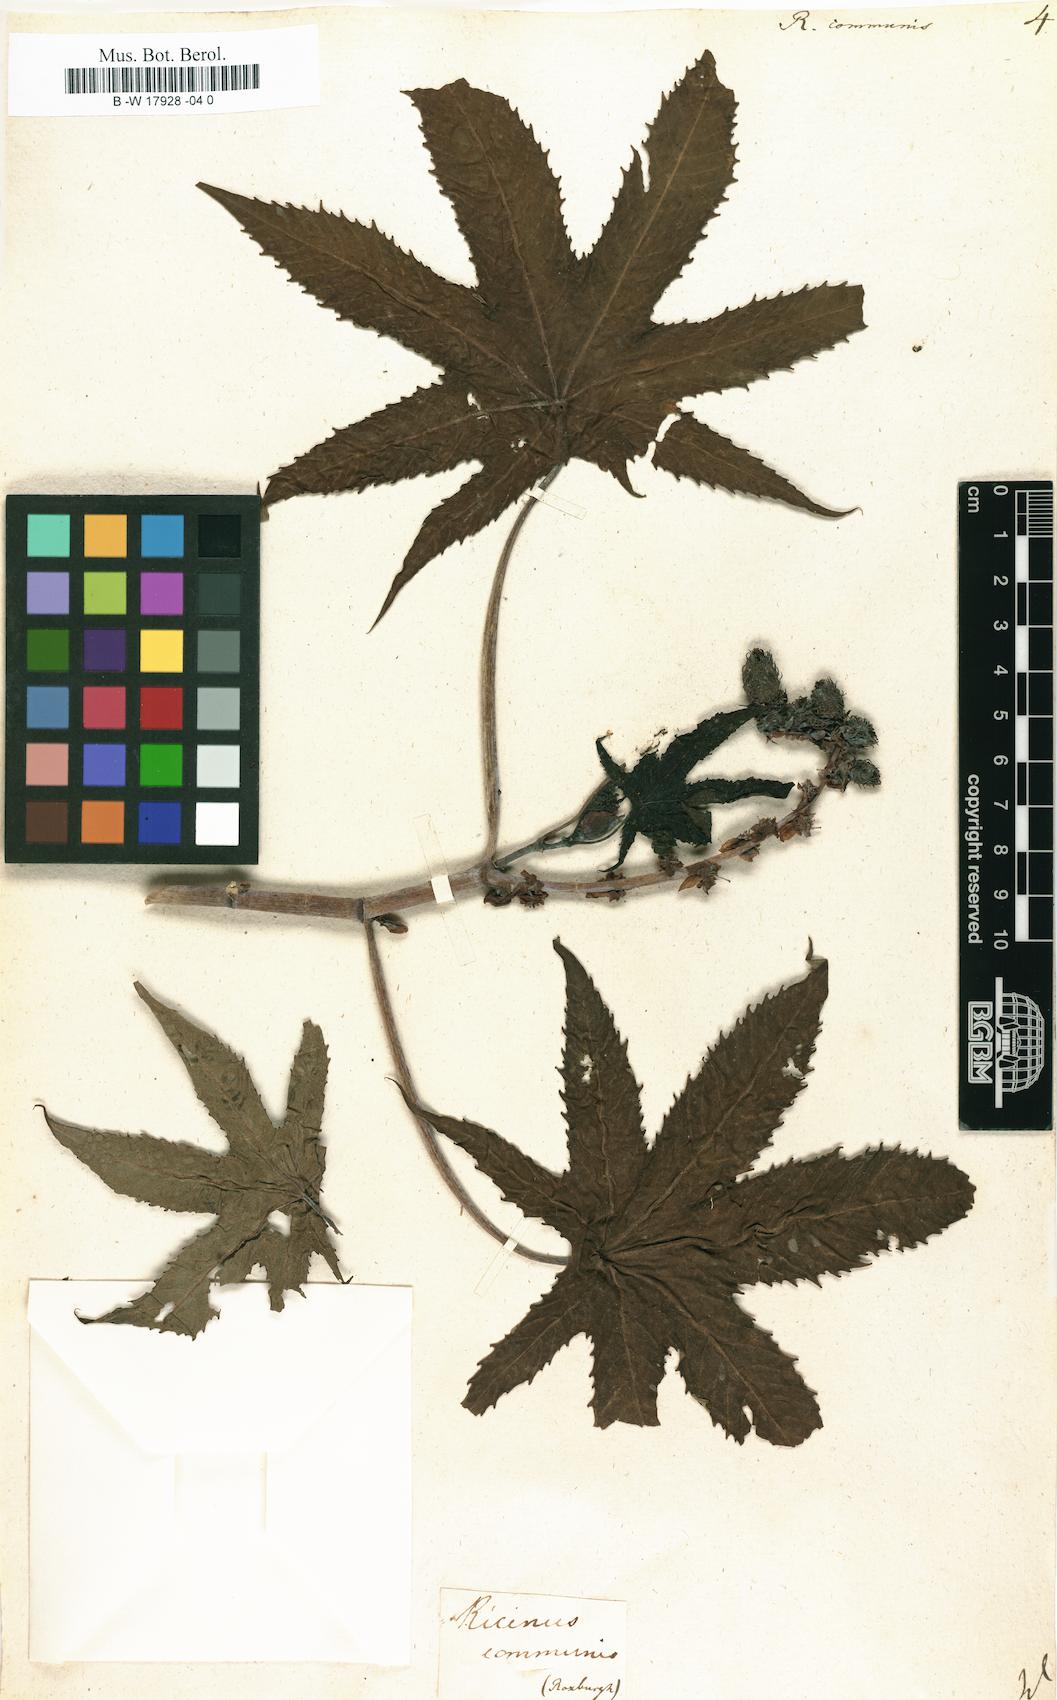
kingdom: Plantae
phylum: Tracheophyta
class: Magnoliopsida
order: Malpighiales
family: Euphorbiaceae
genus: Ricinus
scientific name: Ricinus communis
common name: Castor-oil-plant
